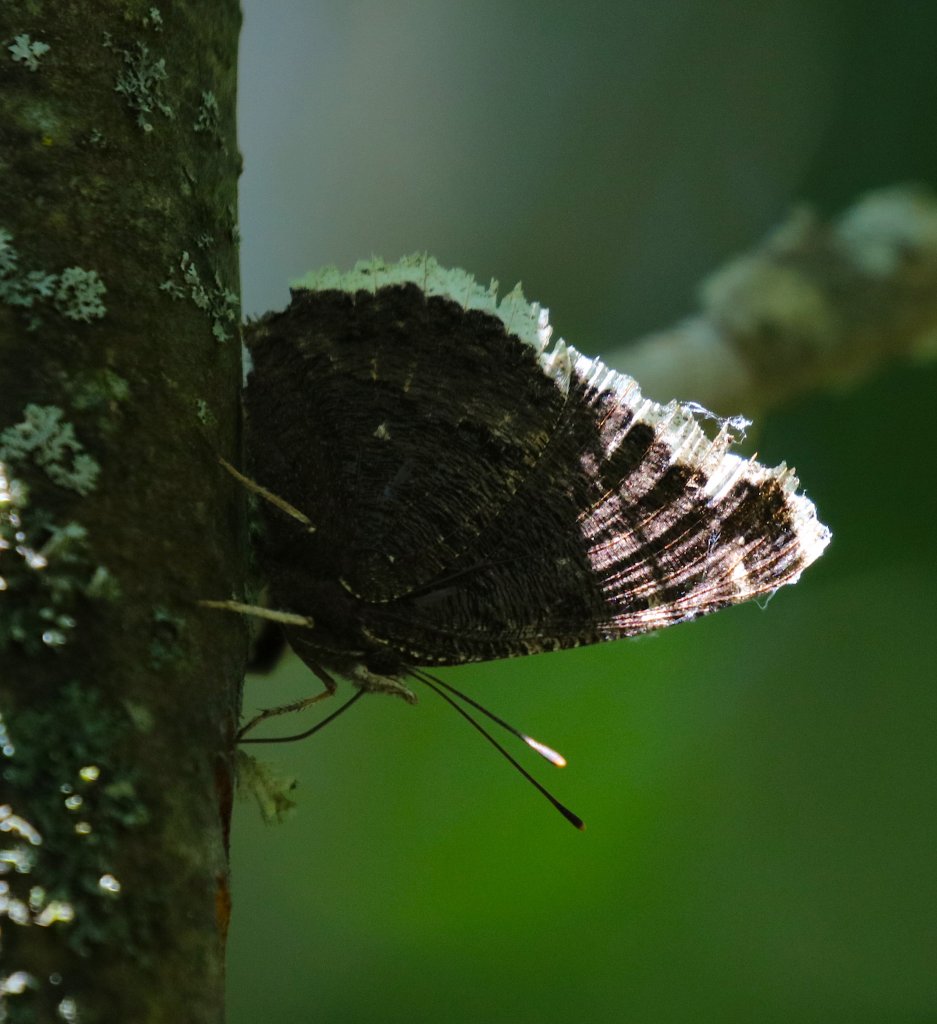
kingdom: Animalia
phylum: Arthropoda
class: Insecta
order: Lepidoptera
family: Nymphalidae
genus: Nymphalis
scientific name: Nymphalis antiopa
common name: Mourning Cloak
